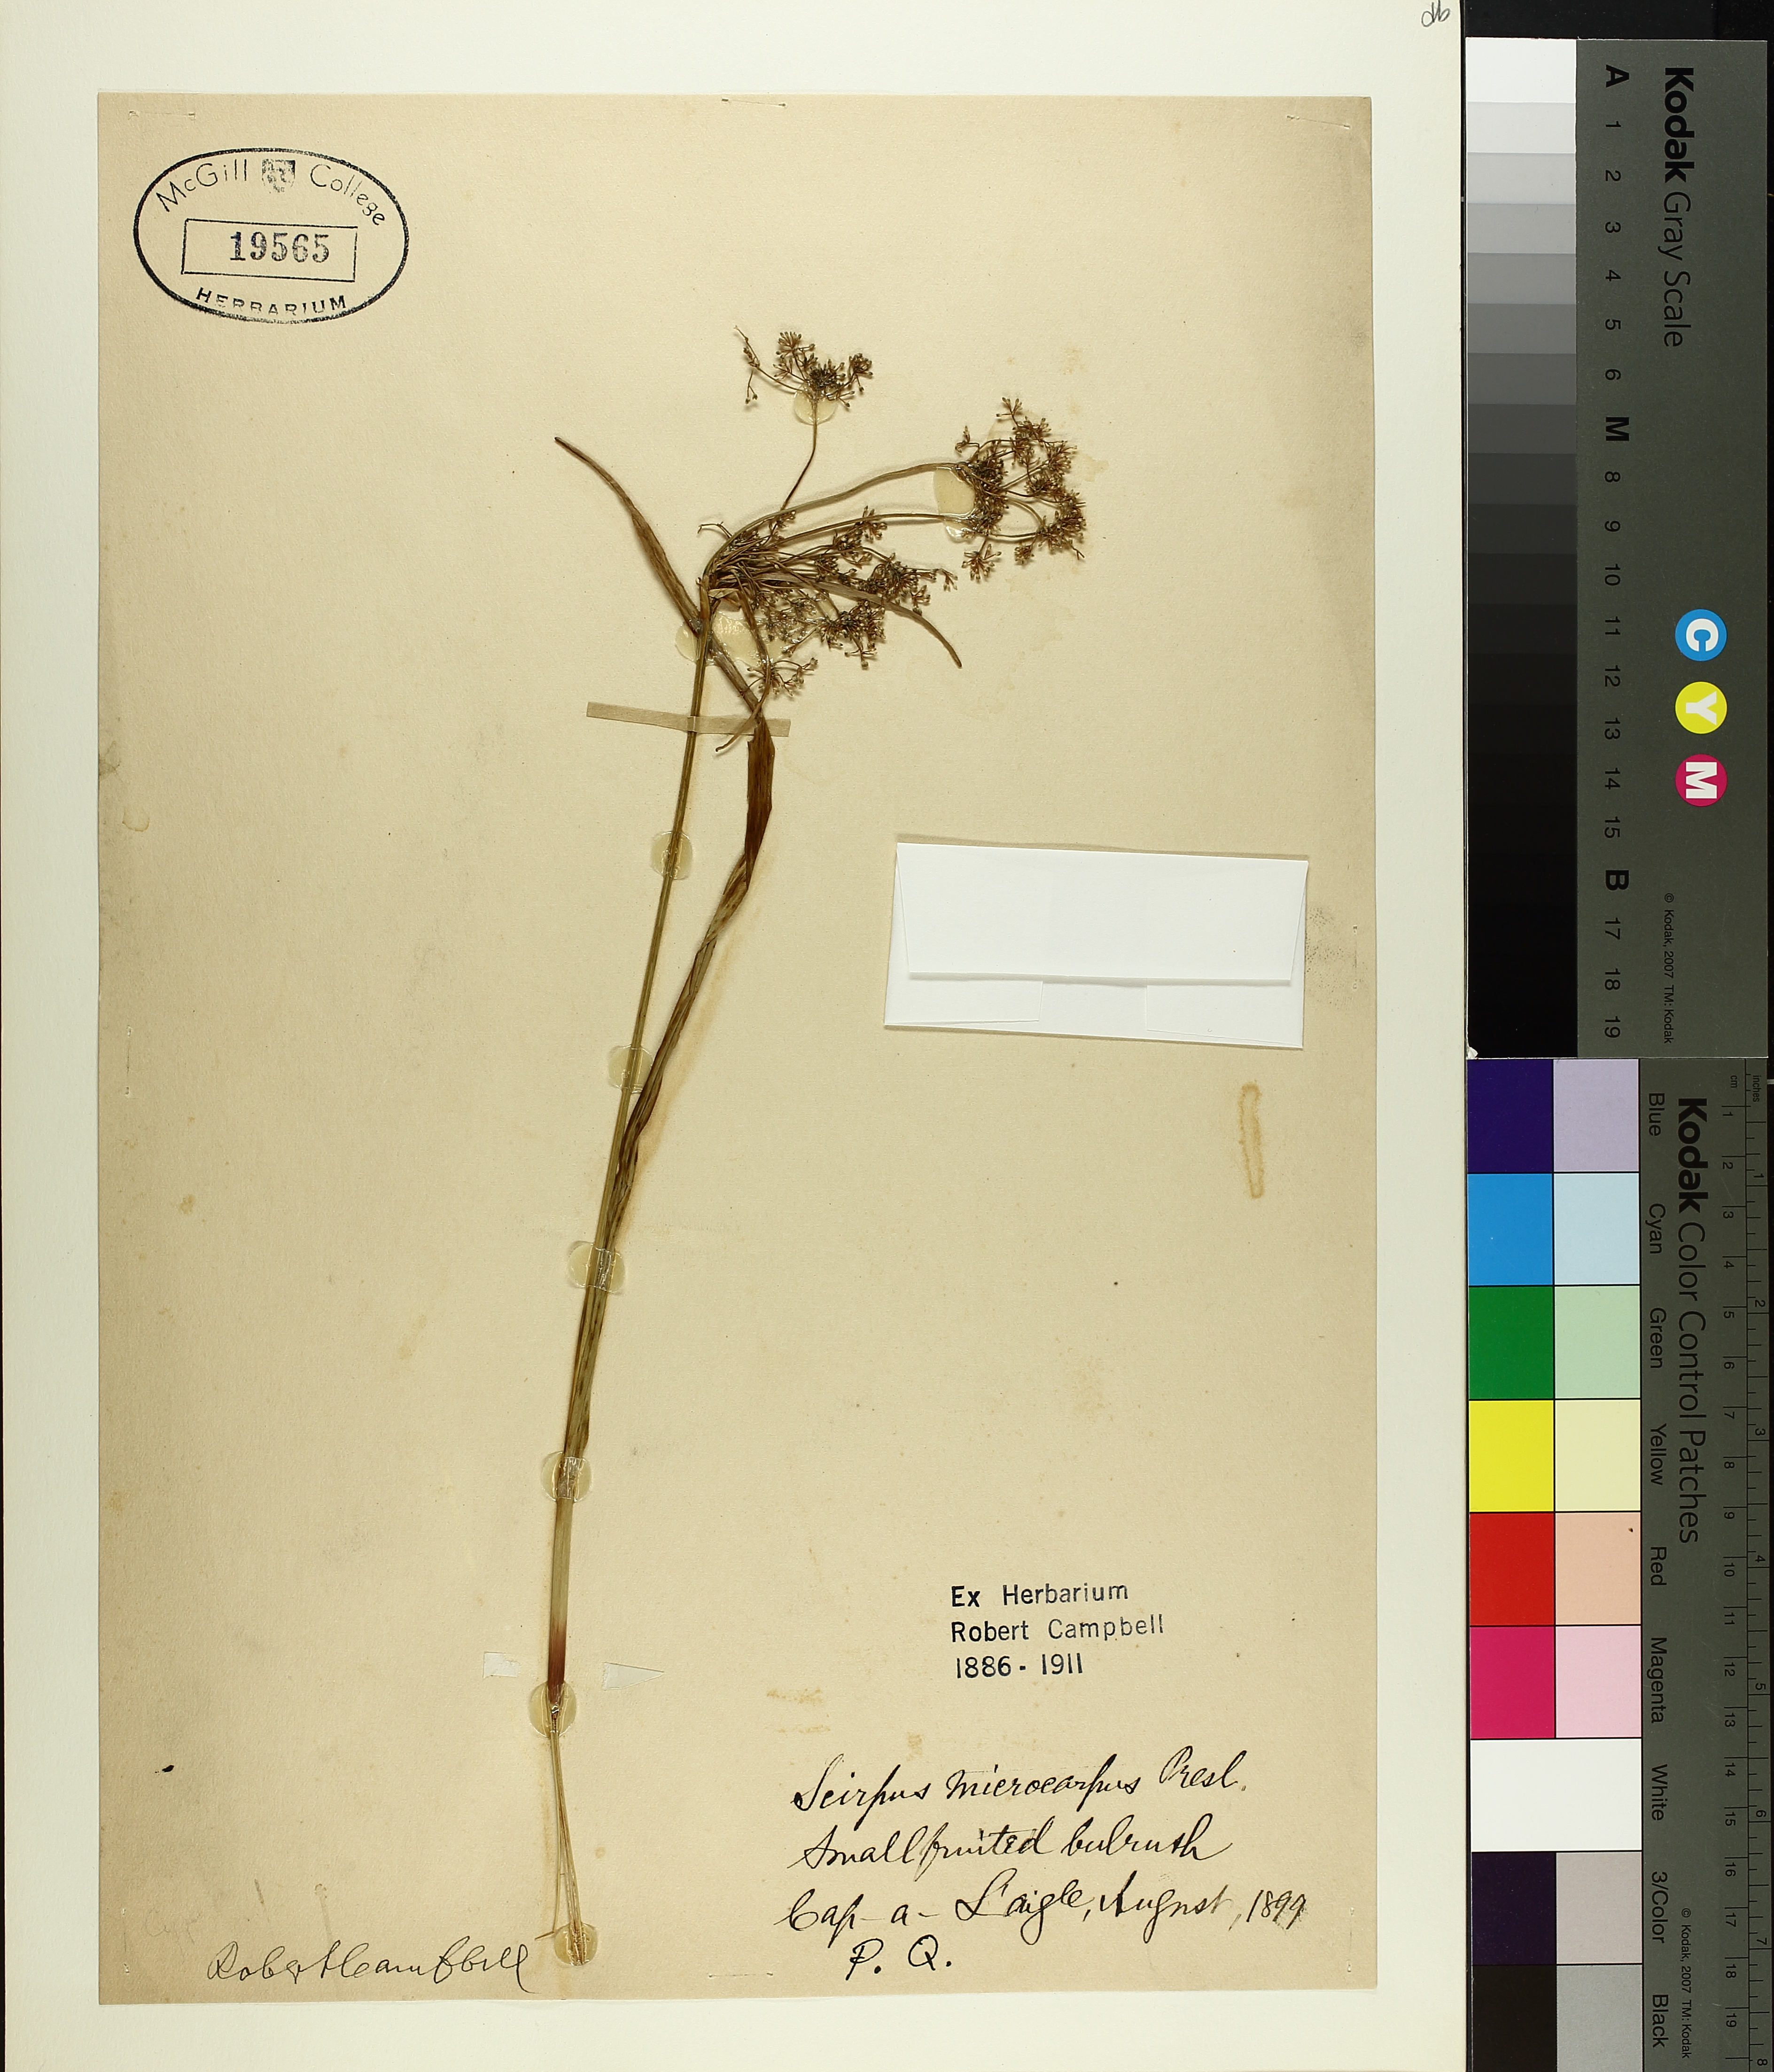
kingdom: Plantae
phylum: Tracheophyta
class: Liliopsida
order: Poales
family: Cyperaceae
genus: Scirpus
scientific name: Scirpus microcarpus
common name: Panicled bulrush
